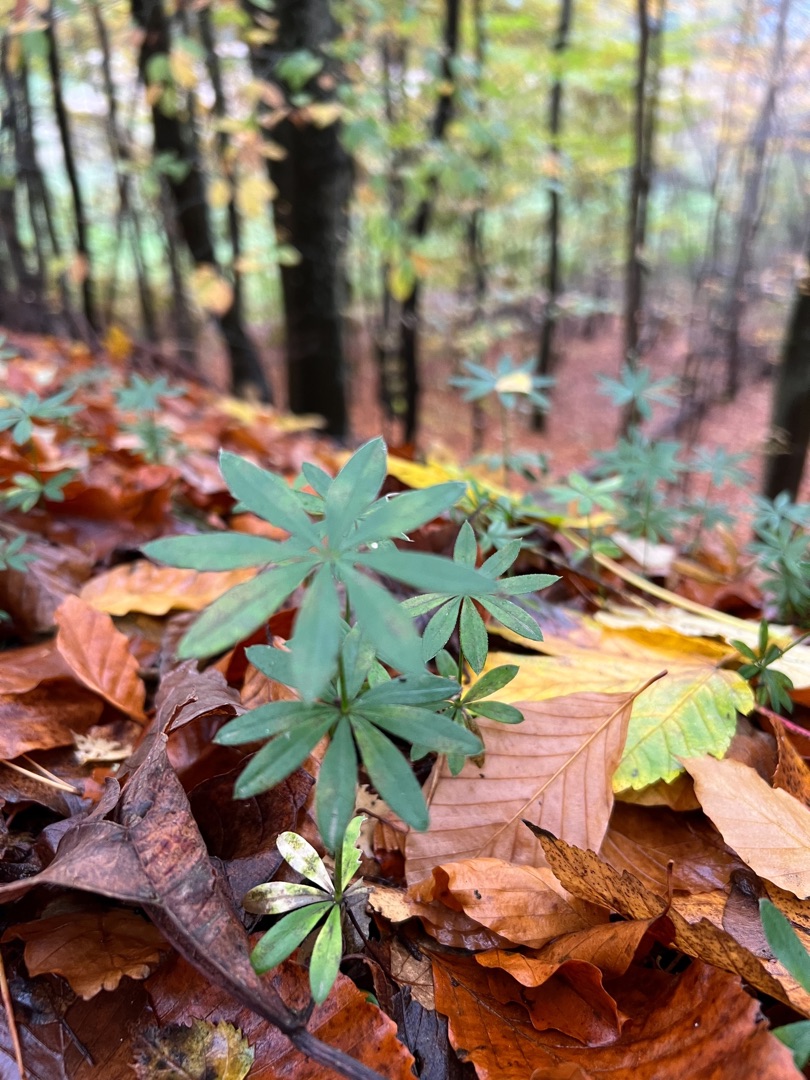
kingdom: Plantae
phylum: Tracheophyta
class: Magnoliopsida
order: Gentianales
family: Rubiaceae
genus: Galium
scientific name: Galium odoratum
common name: Skovmærke
